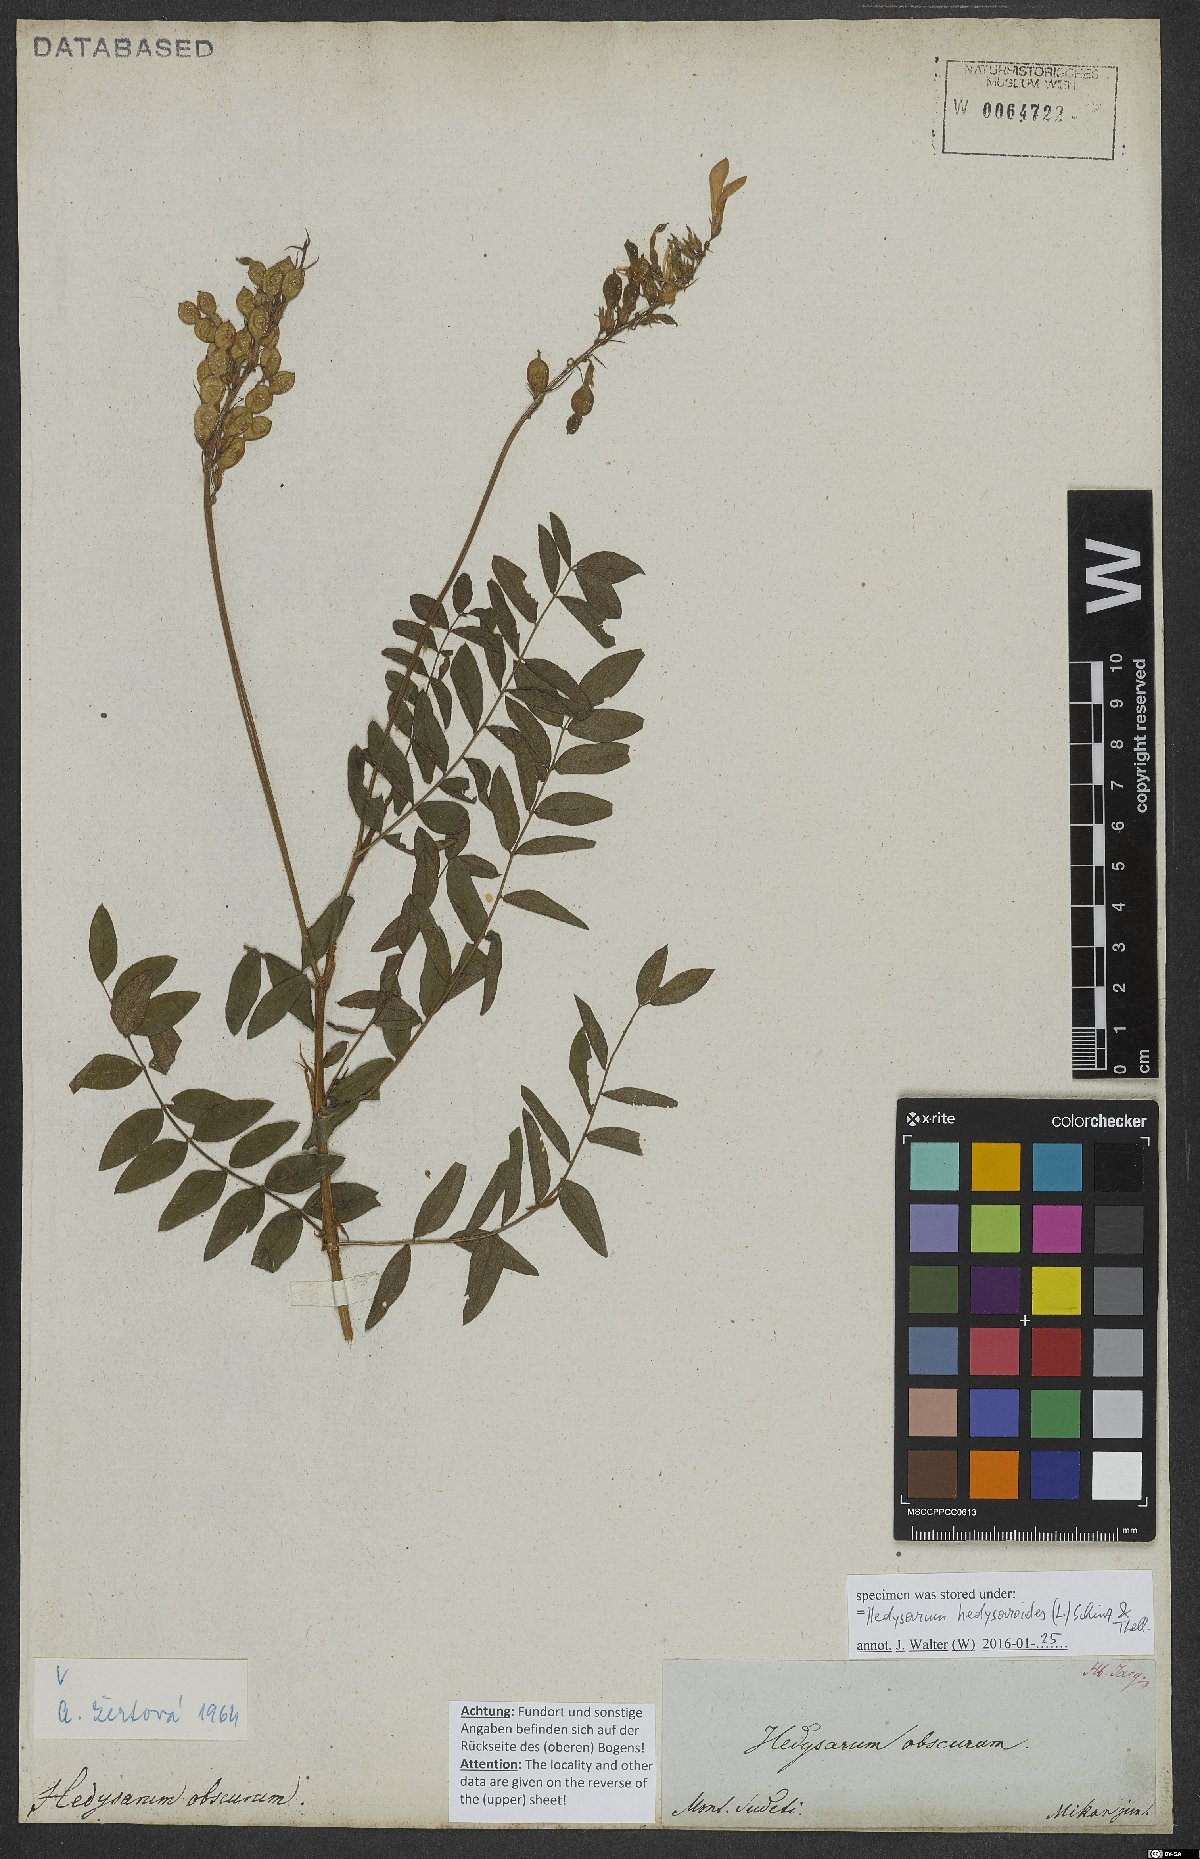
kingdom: Plantae
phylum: Tracheophyta
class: Magnoliopsida
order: Fabales
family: Fabaceae
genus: Hedysarum
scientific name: Hedysarum hedysaroides
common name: Alpine french-honeysuckle
